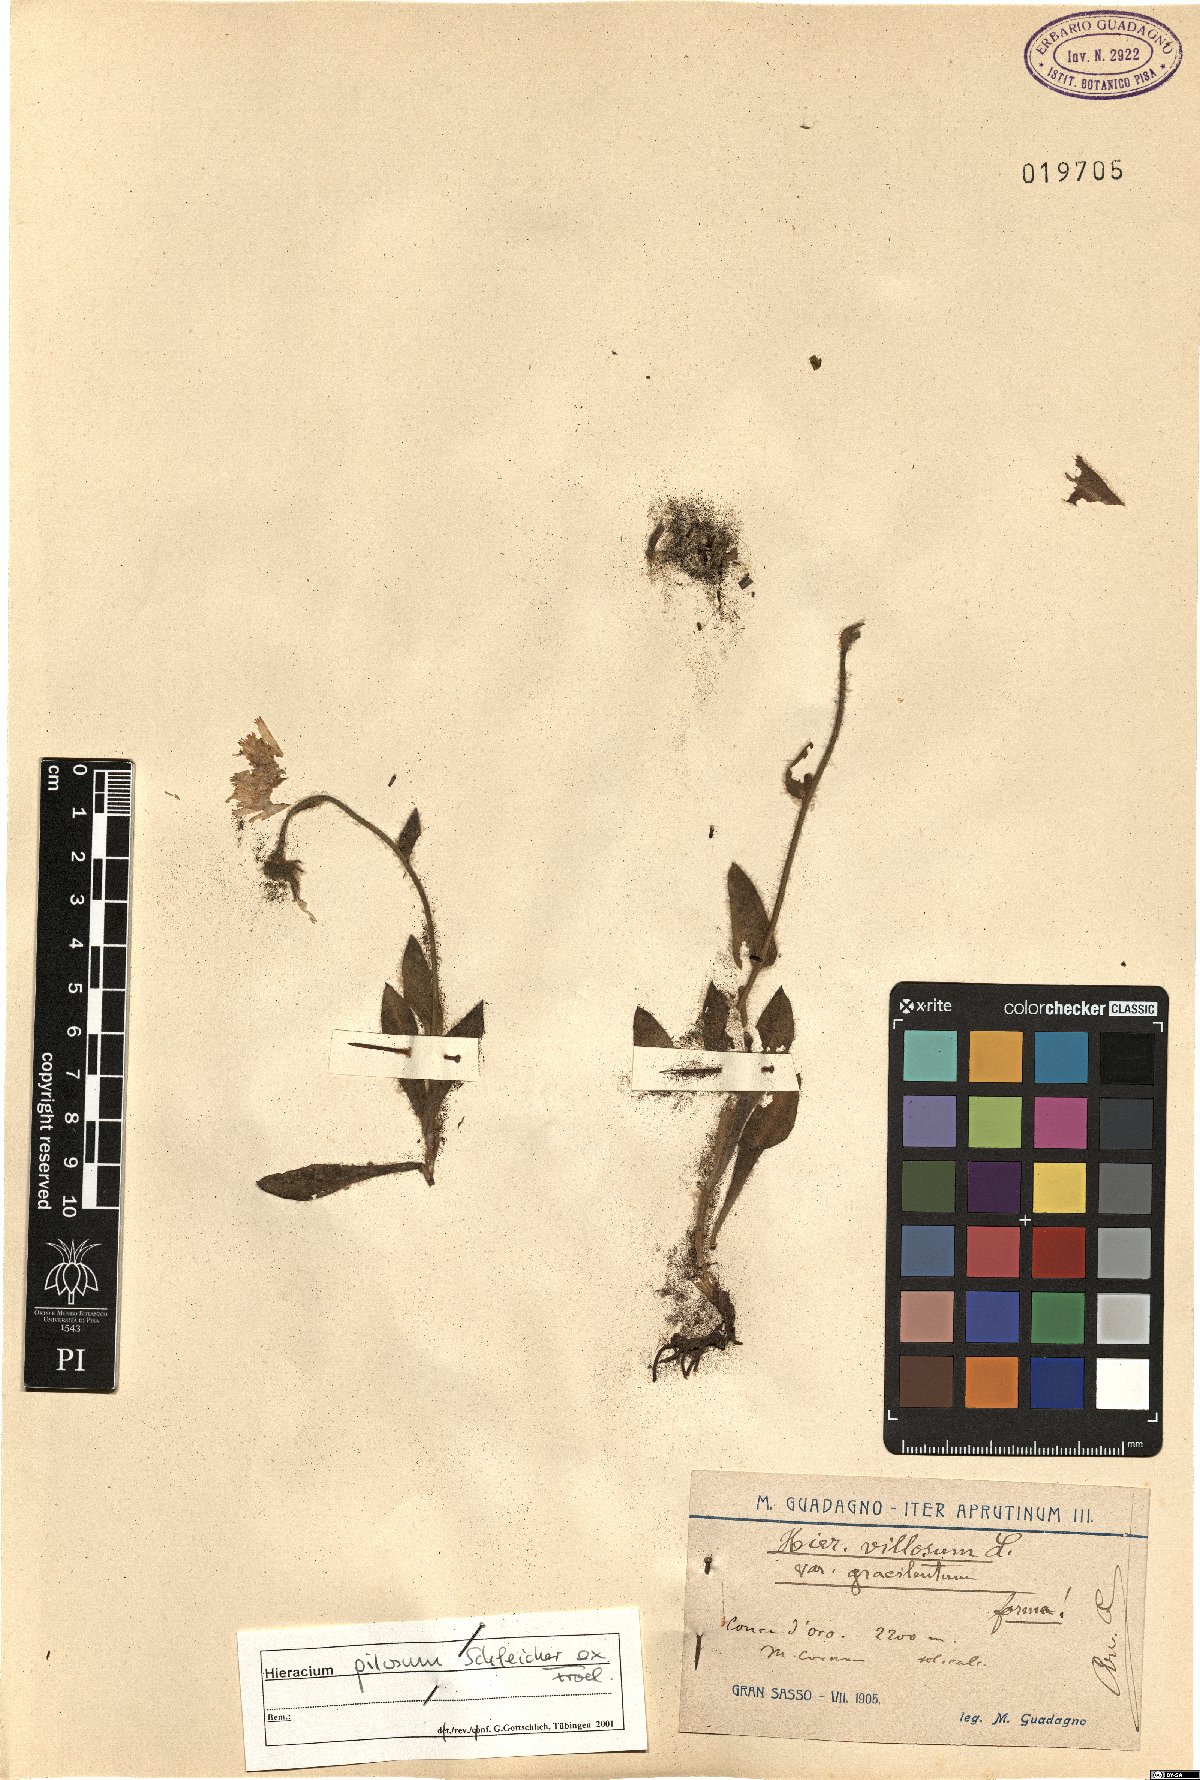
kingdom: Plantae
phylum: Tracheophyta
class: Magnoliopsida
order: Asterales
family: Asteraceae
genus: Hieracium
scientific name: Hieracium pilosum
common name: Fimbriate-pitted hawkweed
